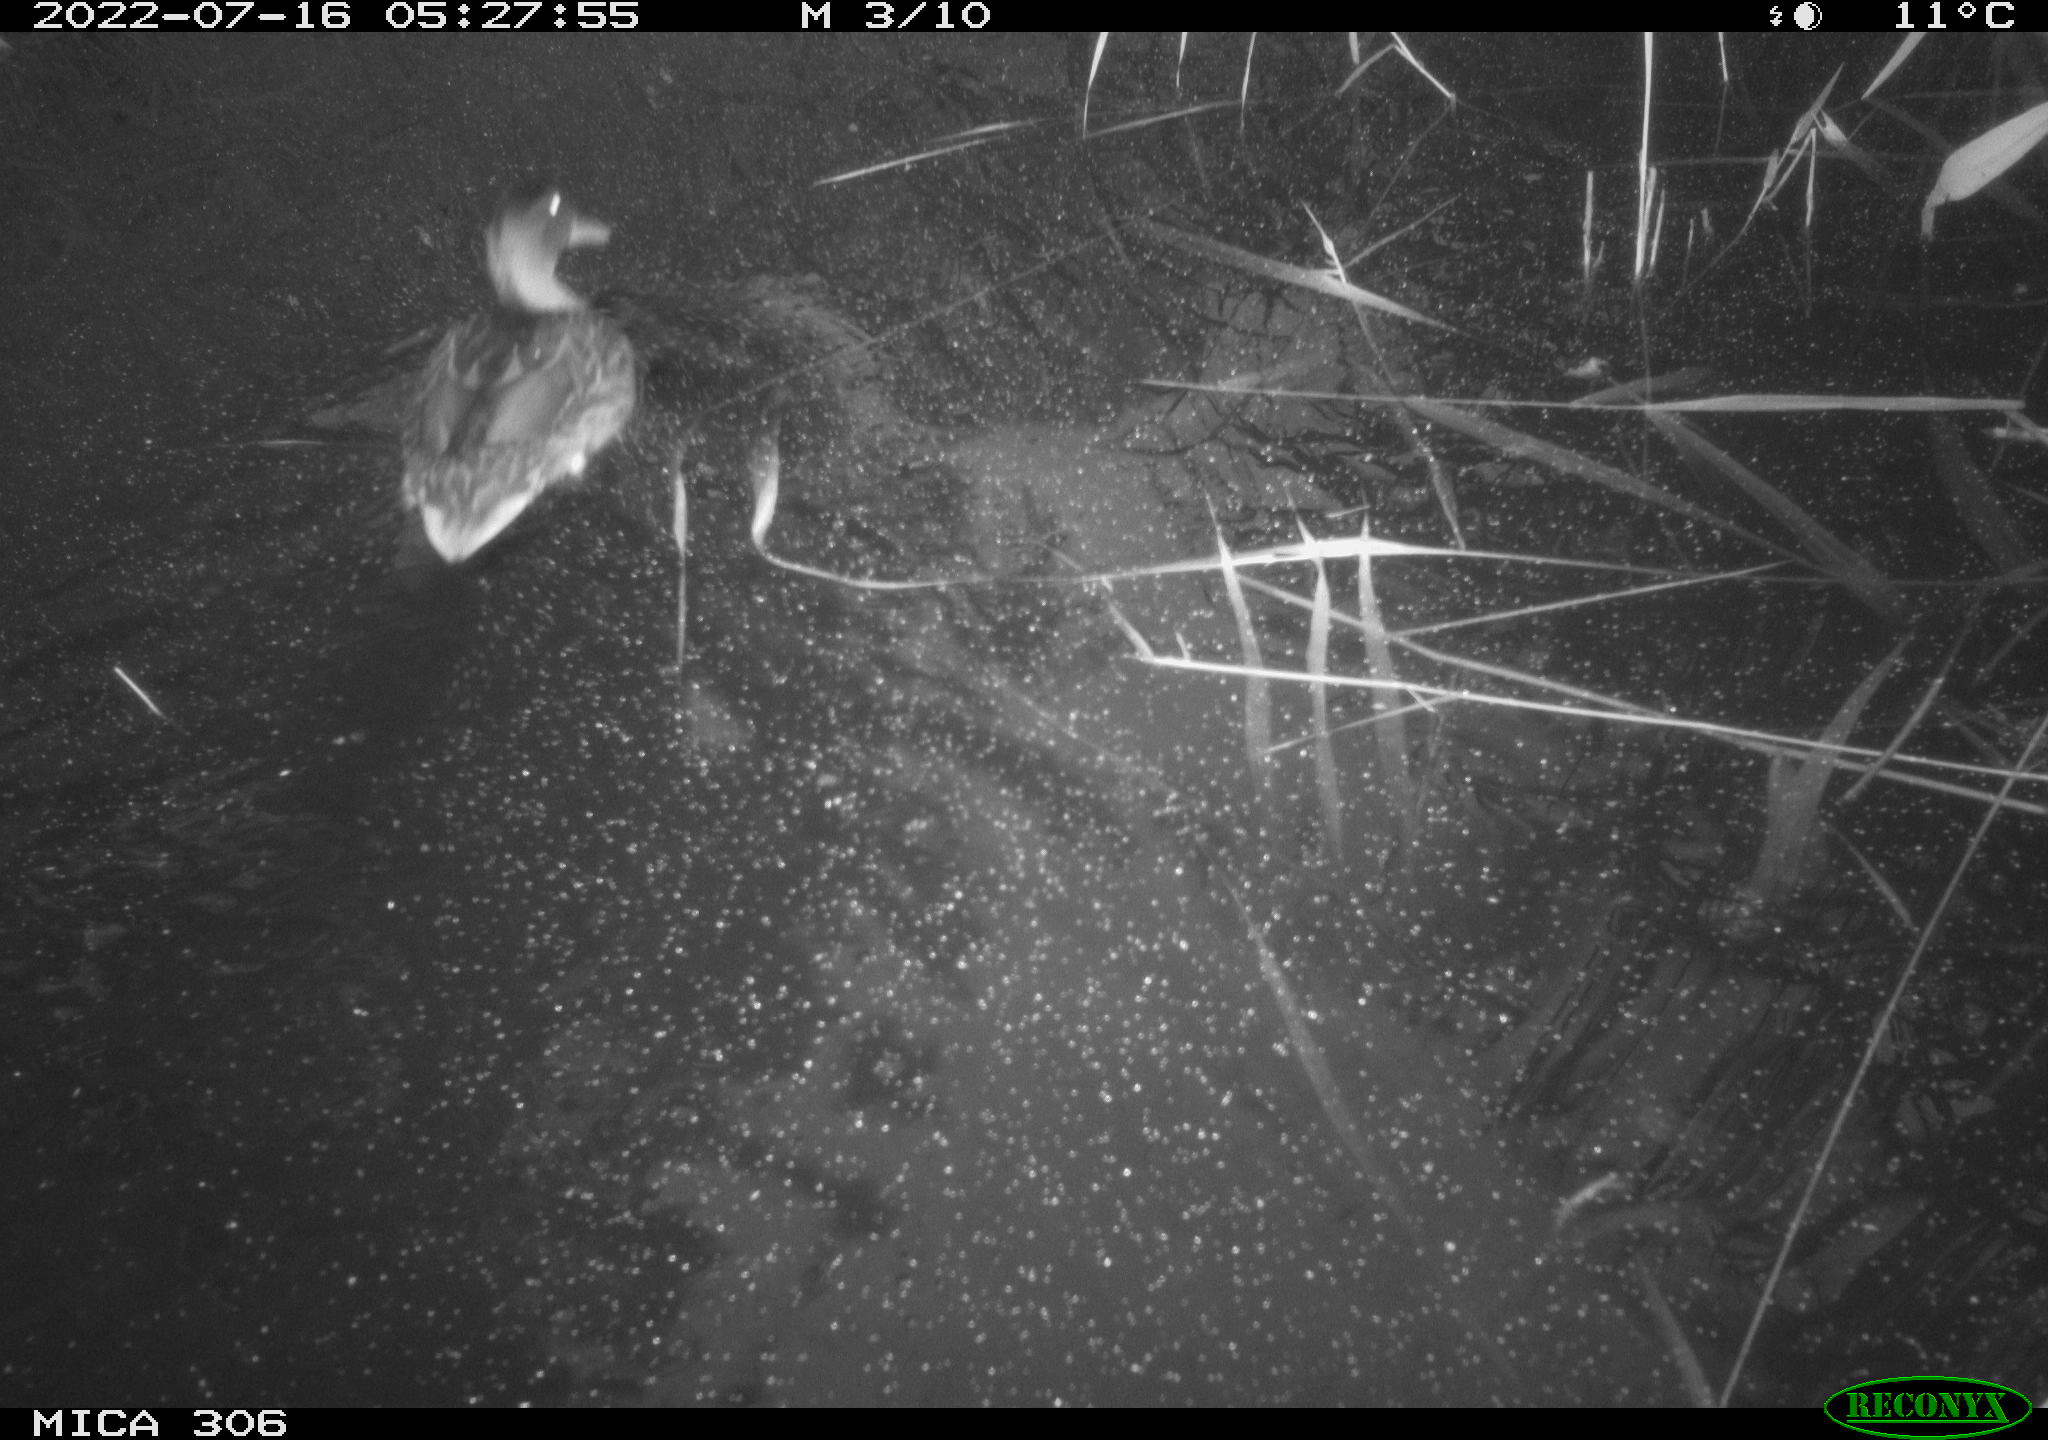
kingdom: Animalia
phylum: Chordata
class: Aves
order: Anseriformes
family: Anatidae
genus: Anas
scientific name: Anas platyrhynchos
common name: Mallard
